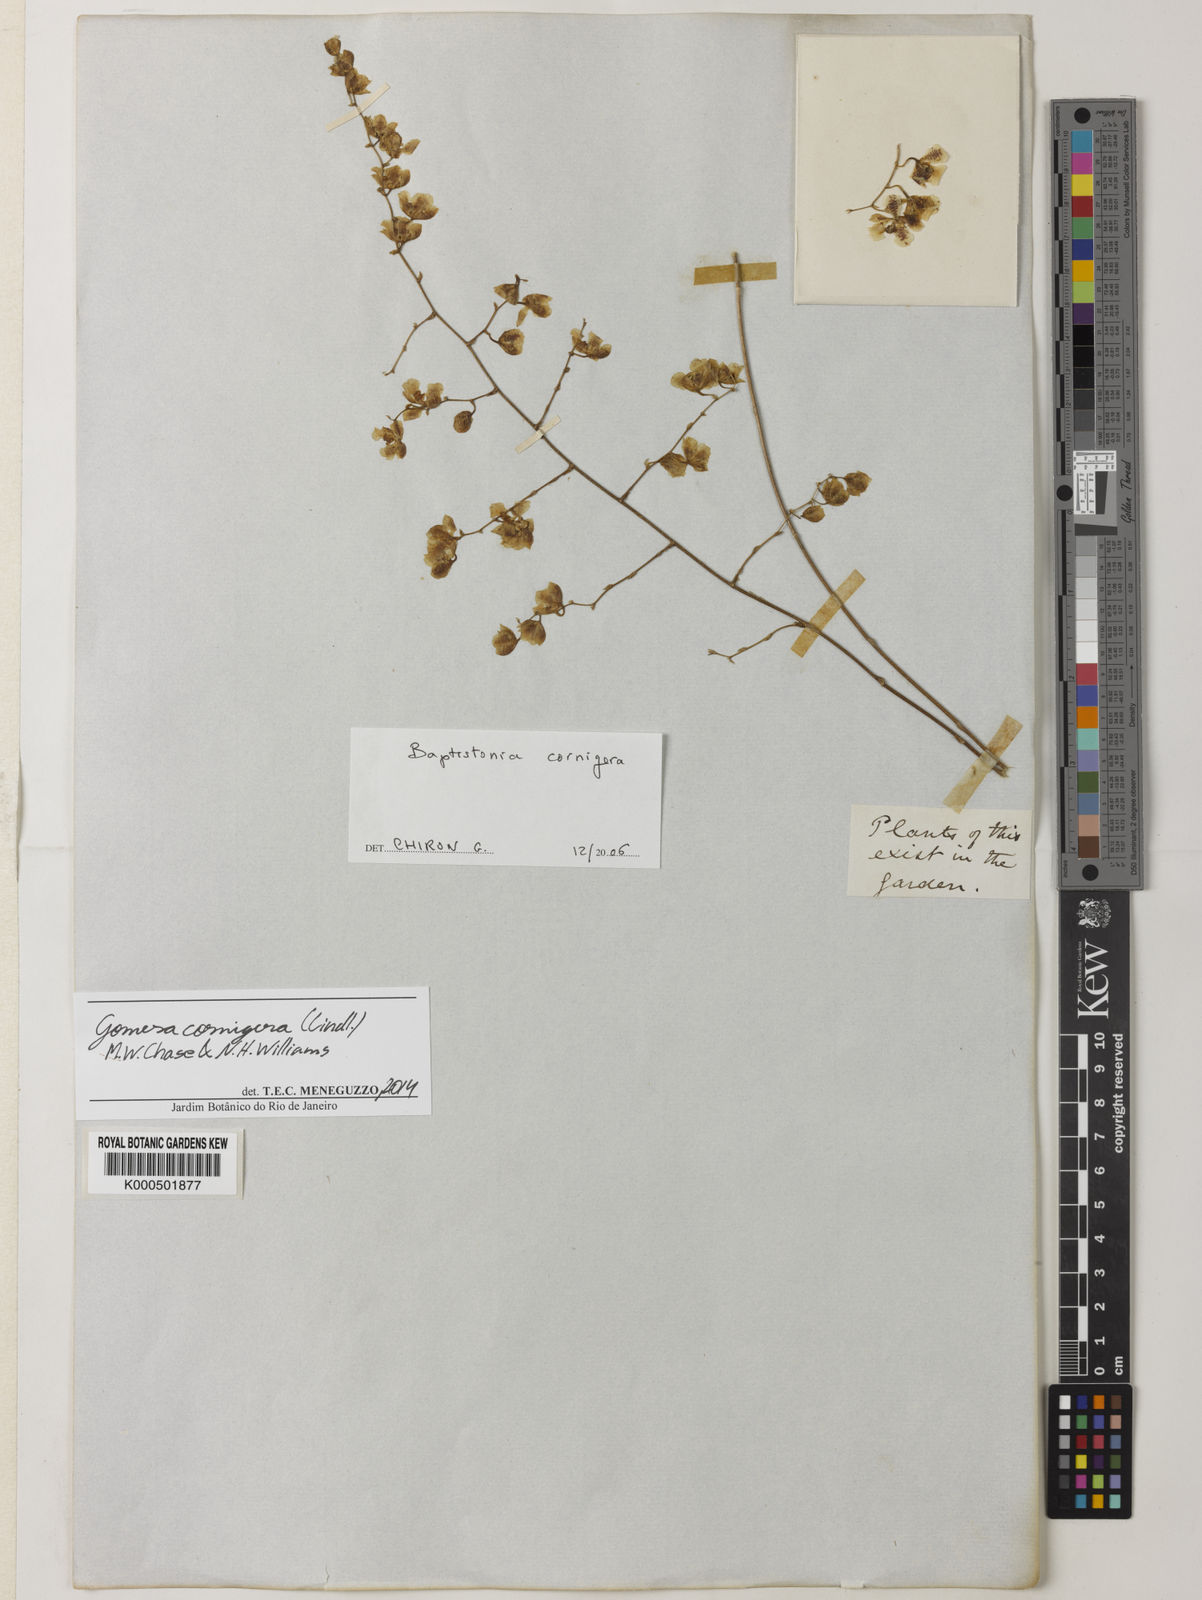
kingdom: Plantae
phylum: Tracheophyta
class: Liliopsida
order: Asparagales
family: Orchidaceae
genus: Gomesa
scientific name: Gomesa cornigera
